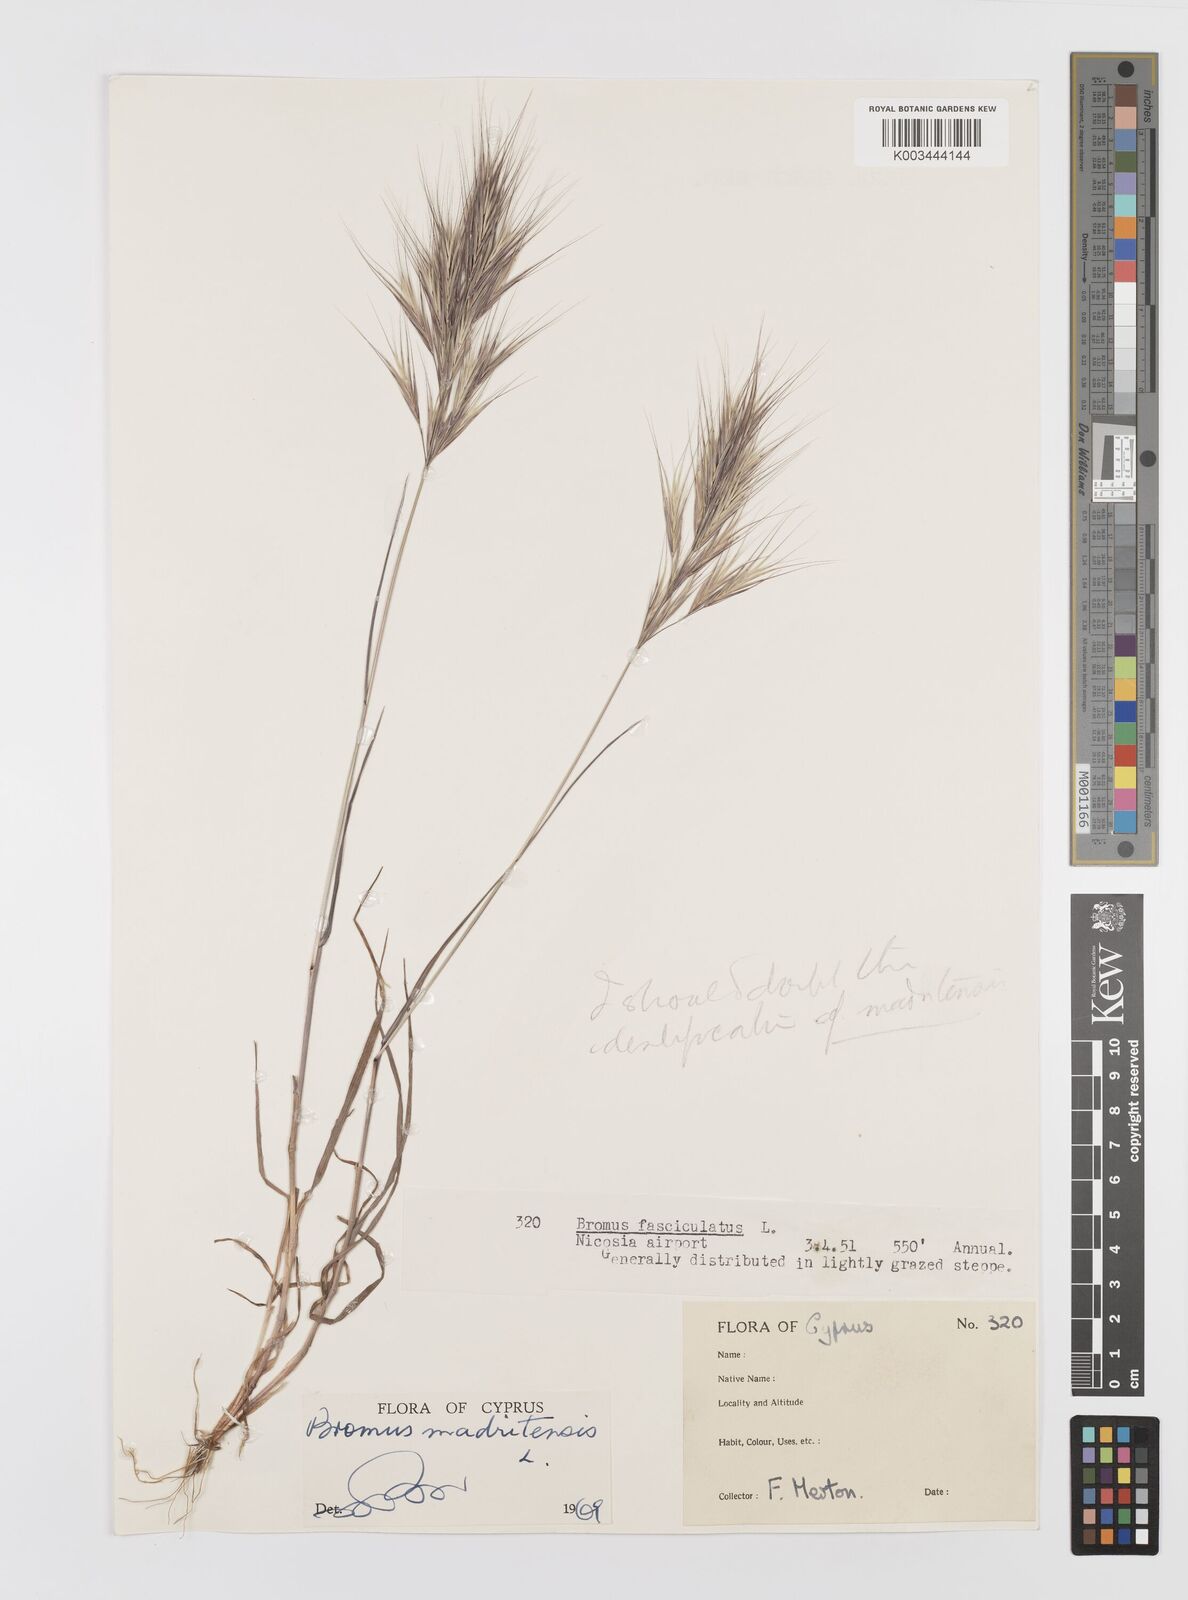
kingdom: Plantae
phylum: Tracheophyta
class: Liliopsida
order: Poales
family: Poaceae
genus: Bromus
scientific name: Bromus madritensis
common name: Compact brome
